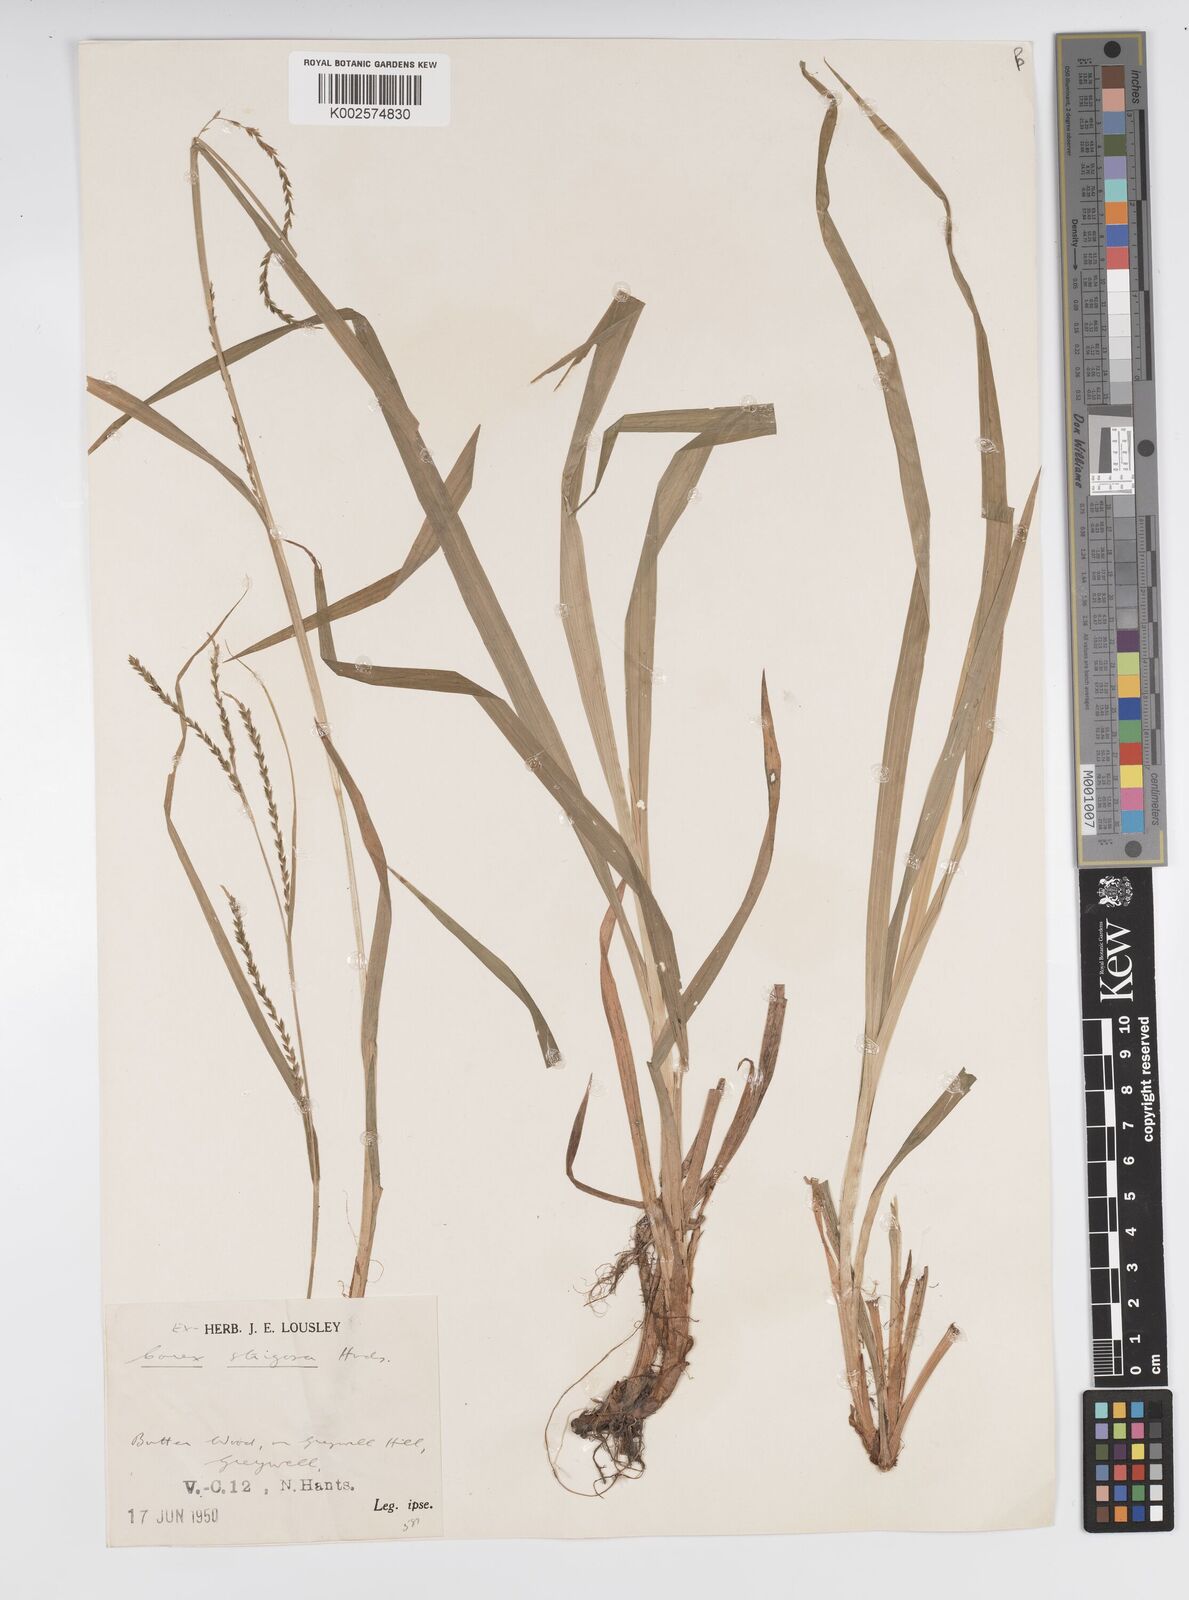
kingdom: Plantae
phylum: Tracheophyta
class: Liliopsida
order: Poales
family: Cyperaceae
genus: Carex
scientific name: Carex strigosa
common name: Thin-spiked wood-sedge
